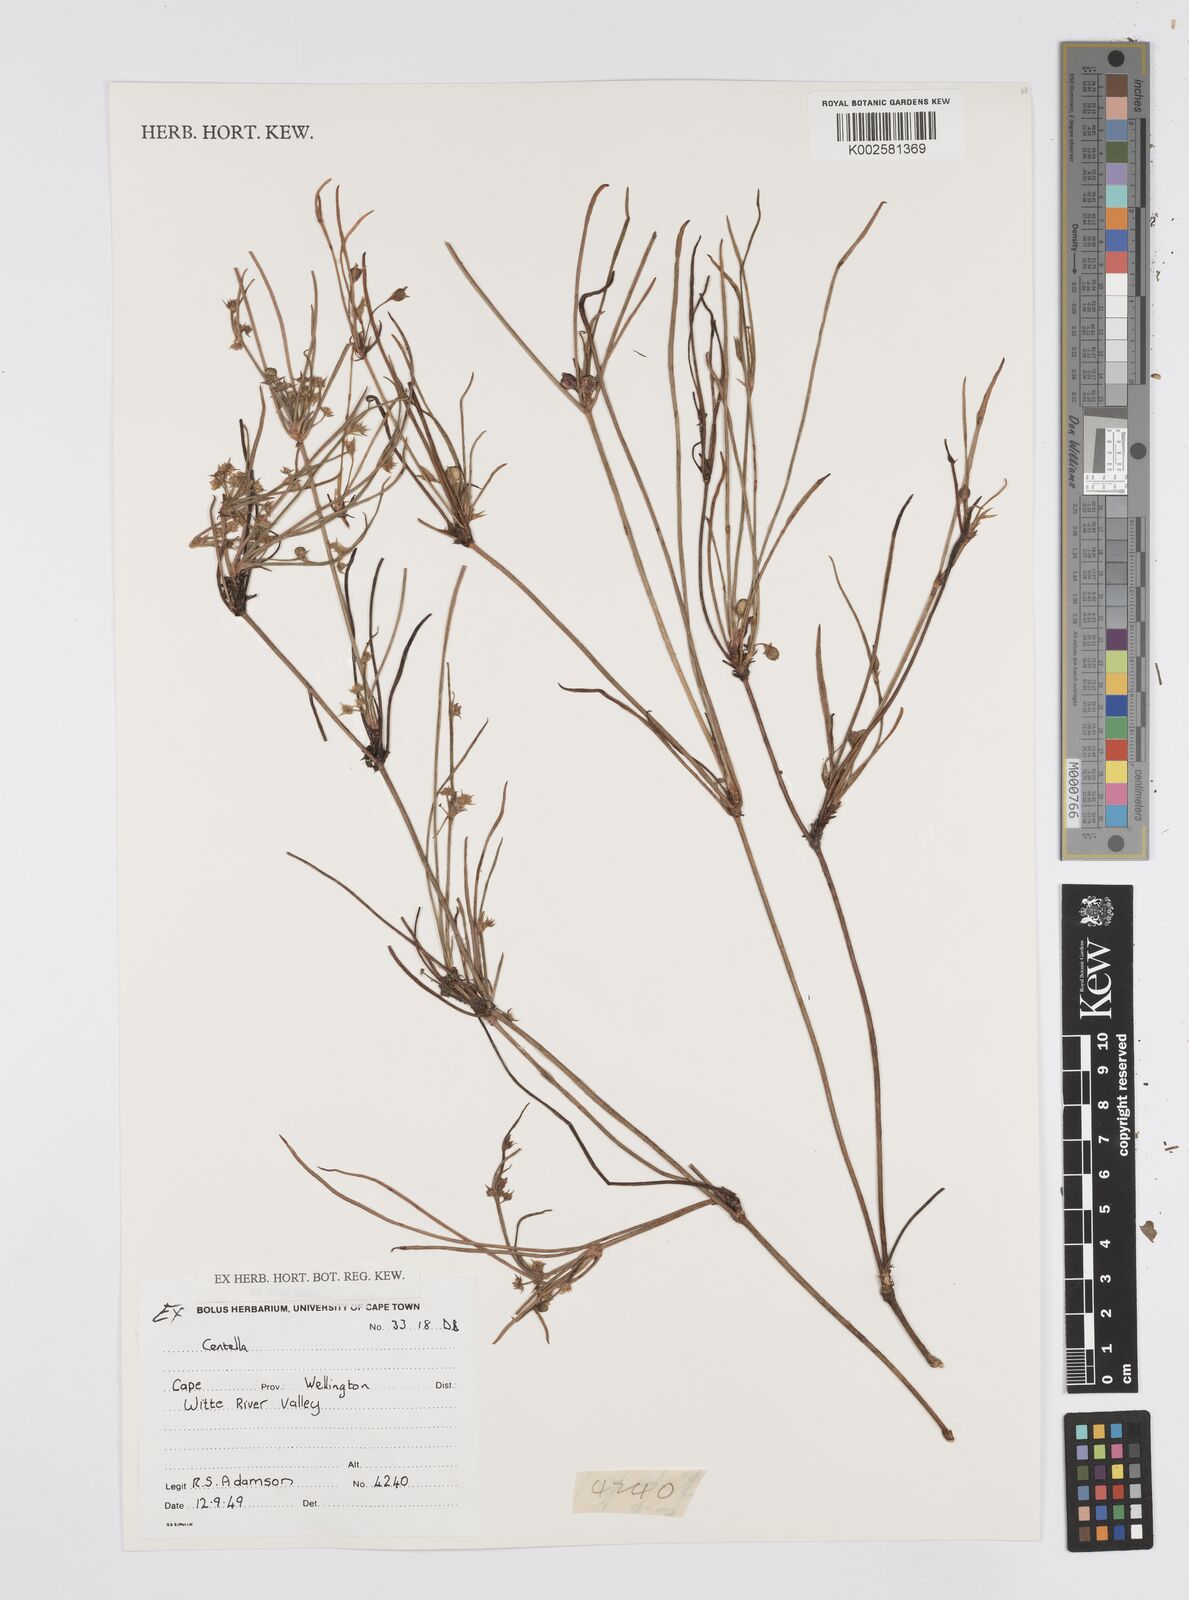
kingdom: Plantae
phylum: Tracheophyta
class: Magnoliopsida
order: Apiales
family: Apiaceae
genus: Centella
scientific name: Centella
